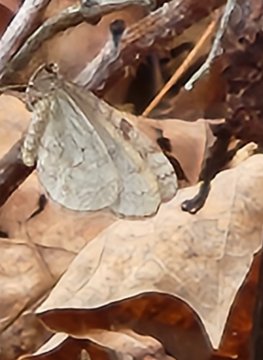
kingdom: Animalia
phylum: Arthropoda
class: Insecta
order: Lepidoptera
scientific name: Lepidoptera
